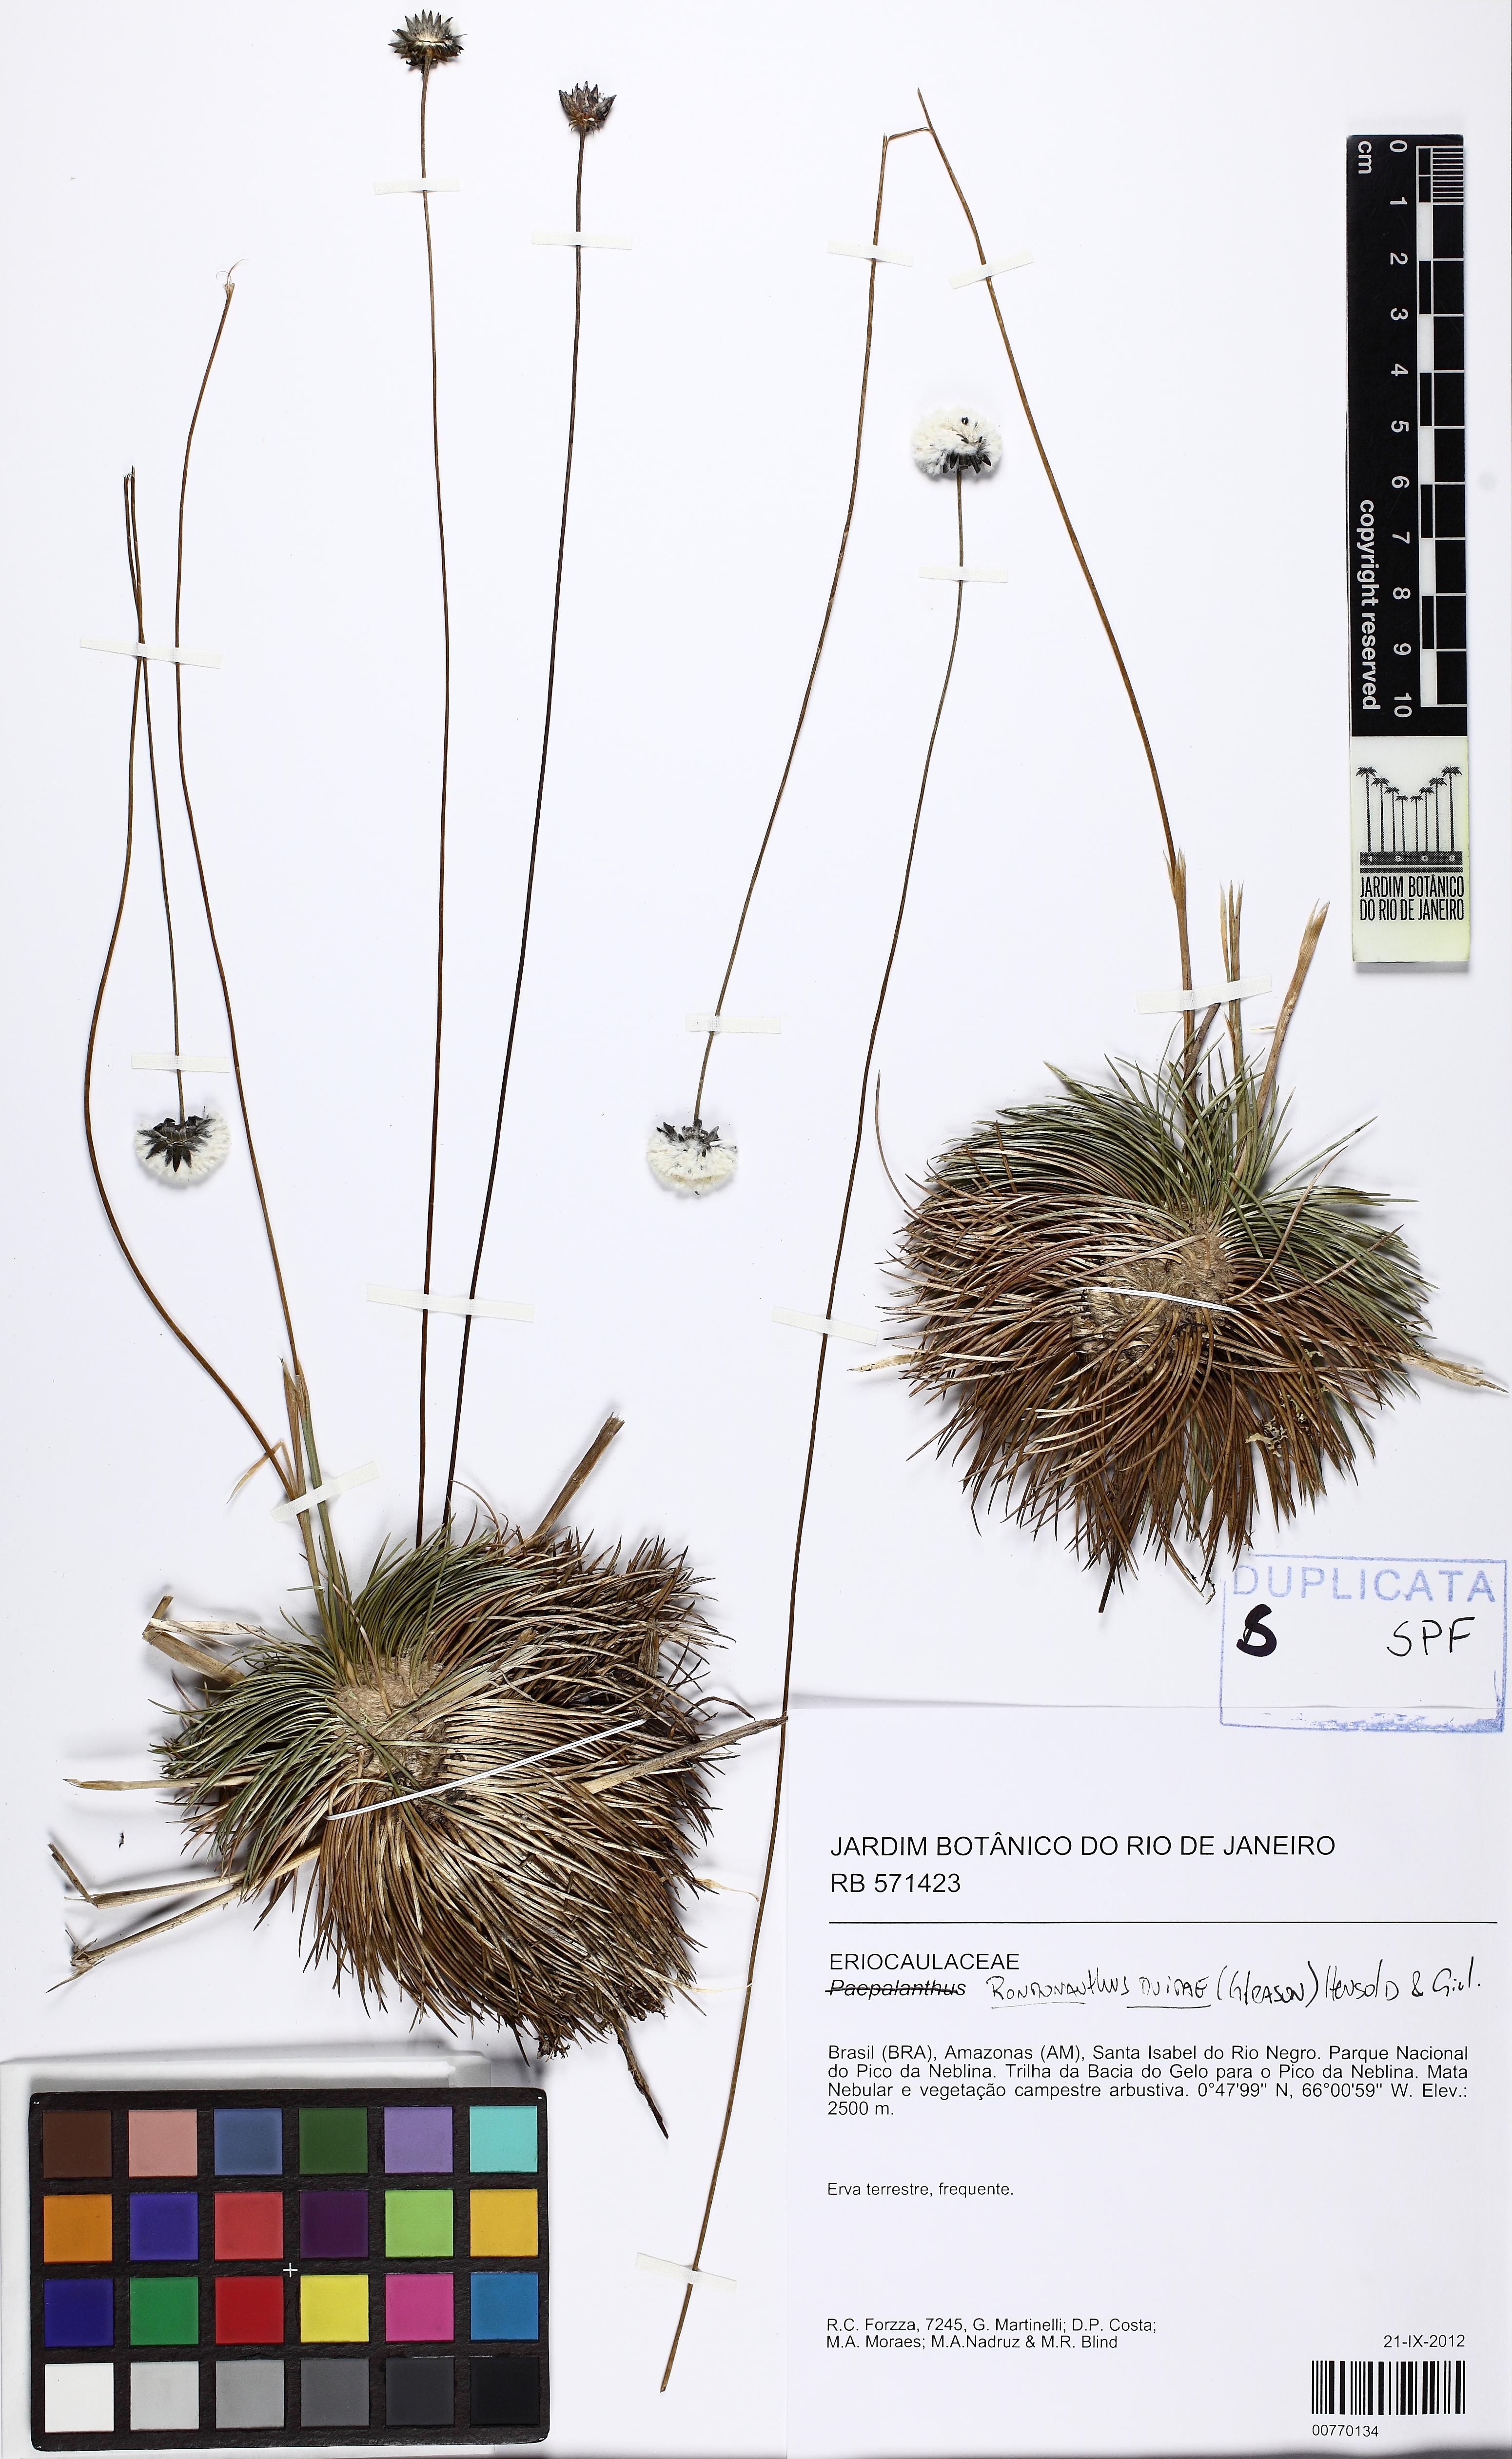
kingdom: Plantae
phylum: Tracheophyta
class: Liliopsida
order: Poales
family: Eriocaulaceae
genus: Rondonanthus
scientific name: Rondonanthus duidae
